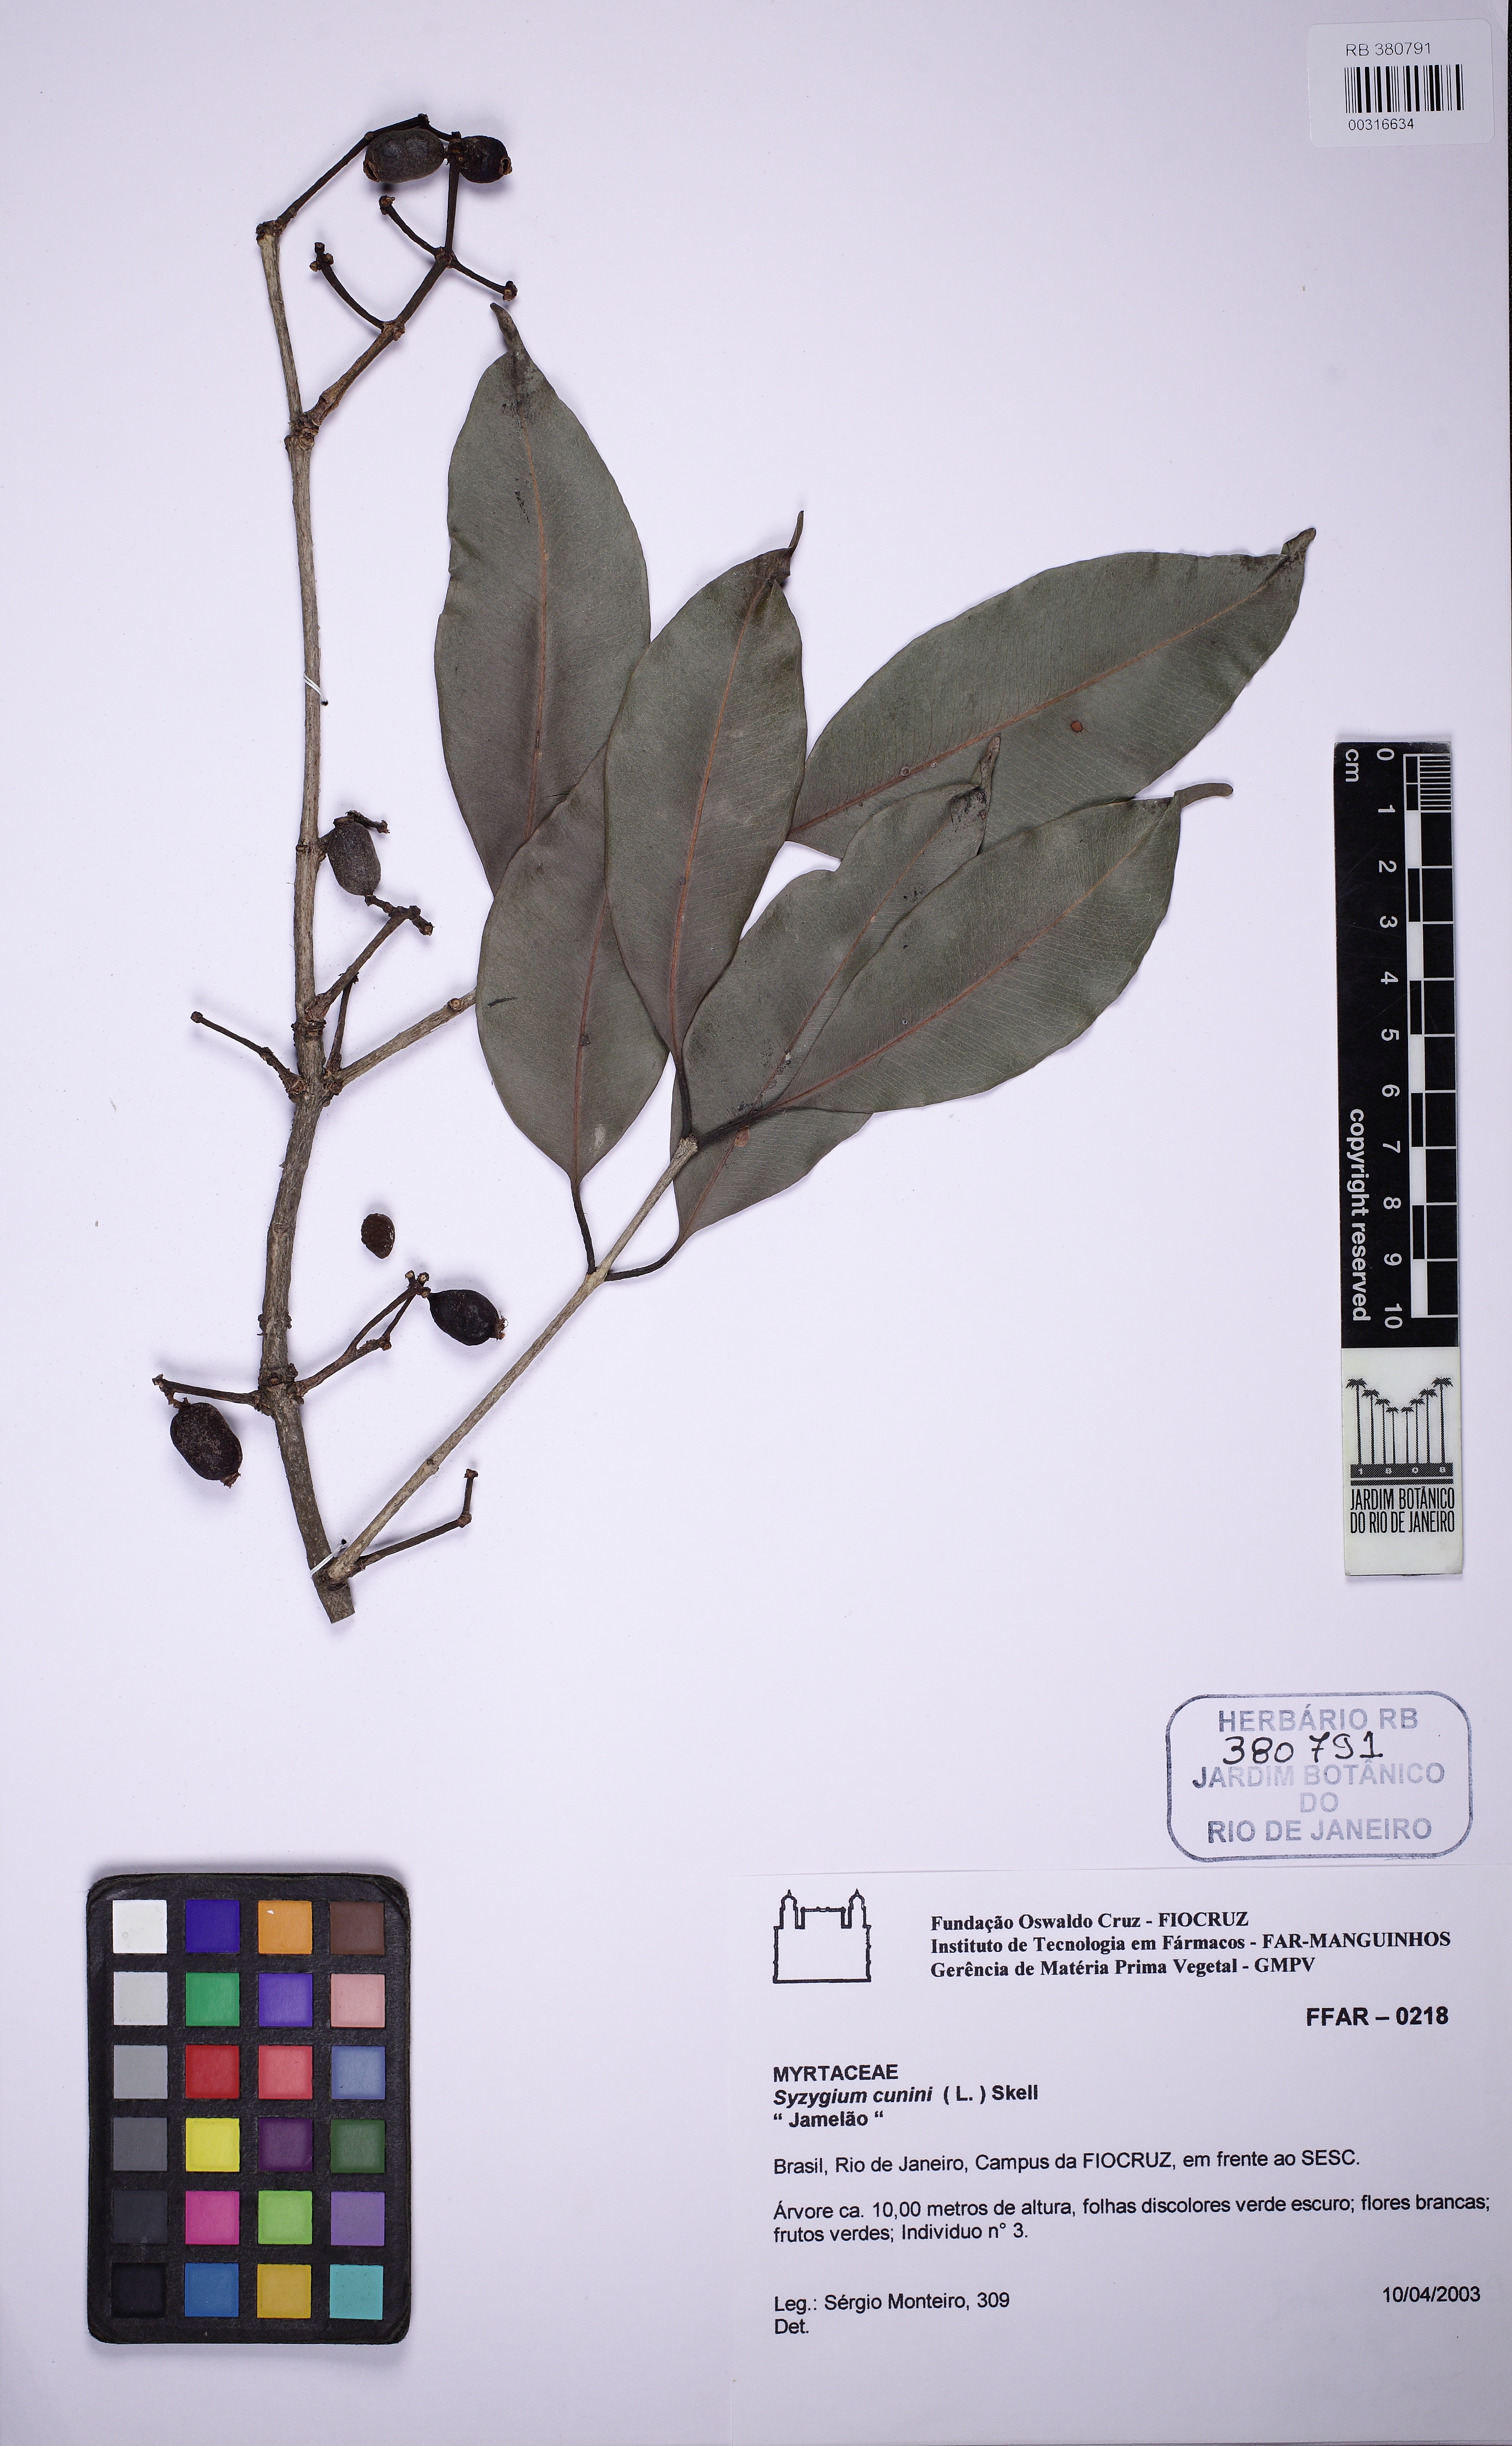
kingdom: Plantae
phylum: Tracheophyta
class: Magnoliopsida
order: Myrtales
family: Myrtaceae
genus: Syzygium
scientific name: Syzygium cumini
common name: Java plum
